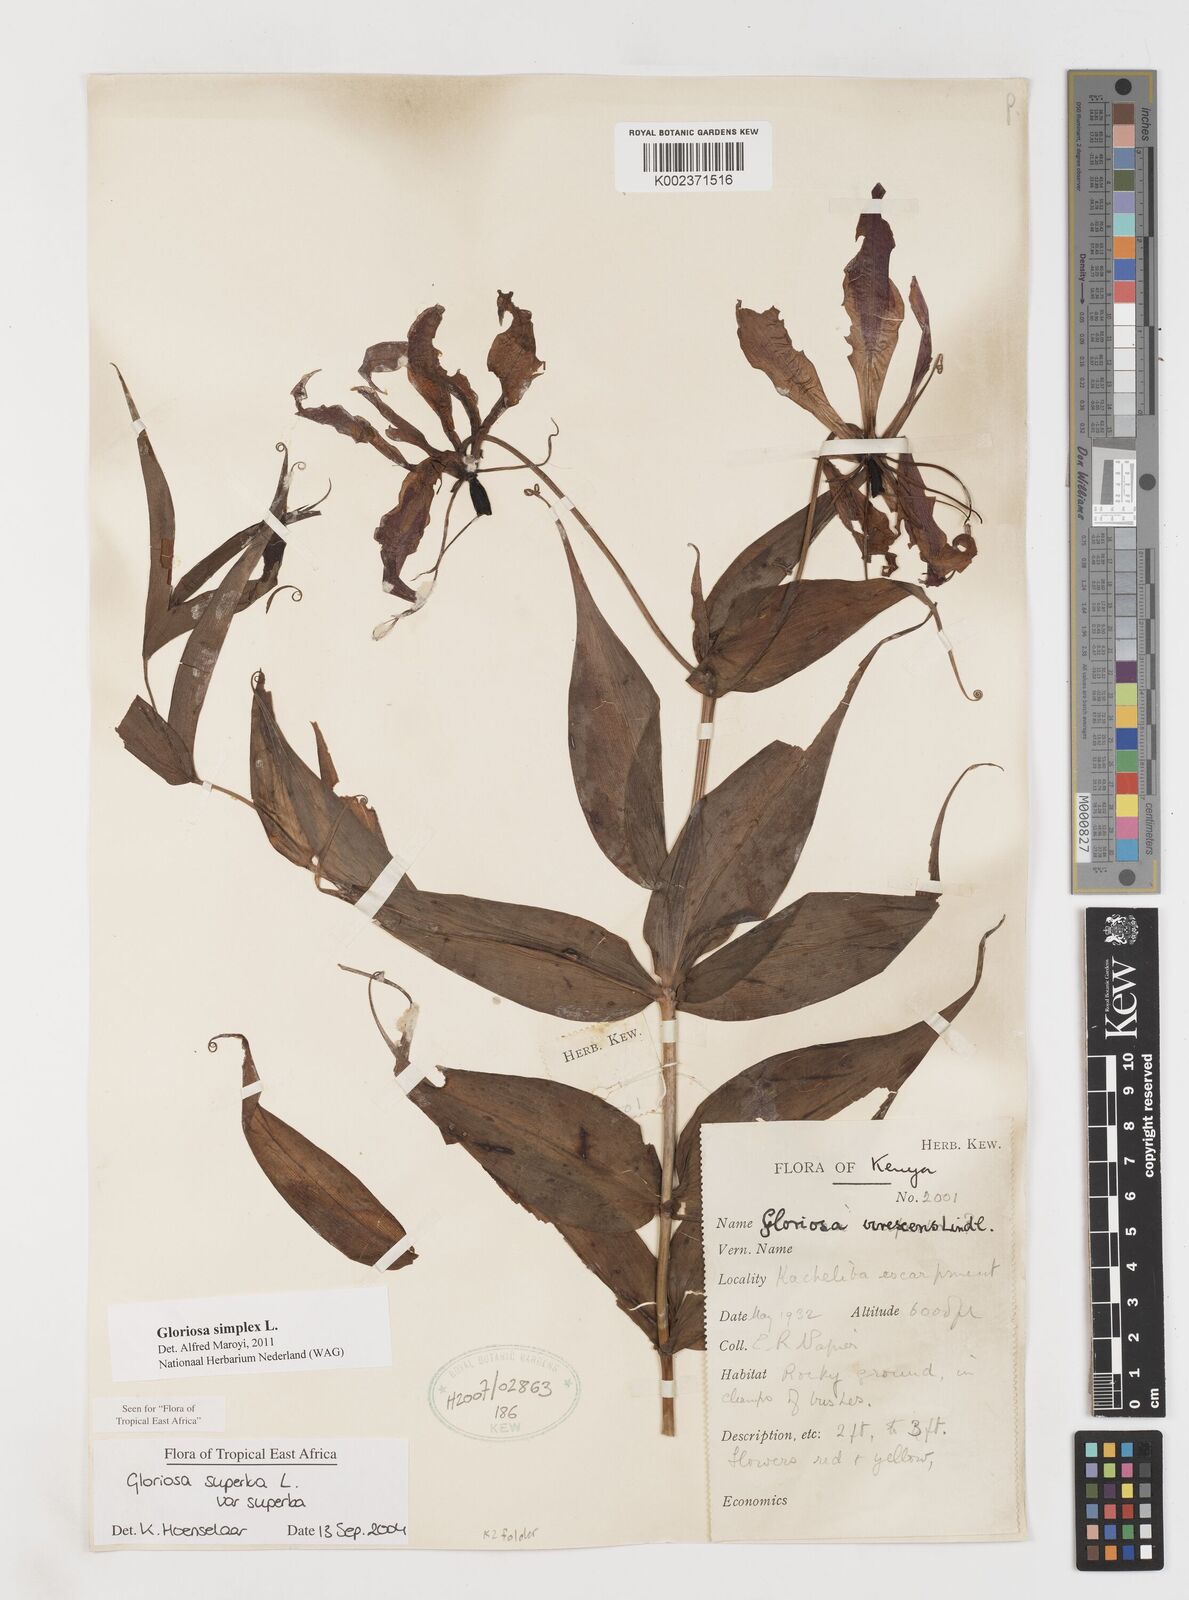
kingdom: Plantae
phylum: Tracheophyta
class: Liliopsida
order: Liliales
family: Colchicaceae
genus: Gloriosa
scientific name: Gloriosa simplex
